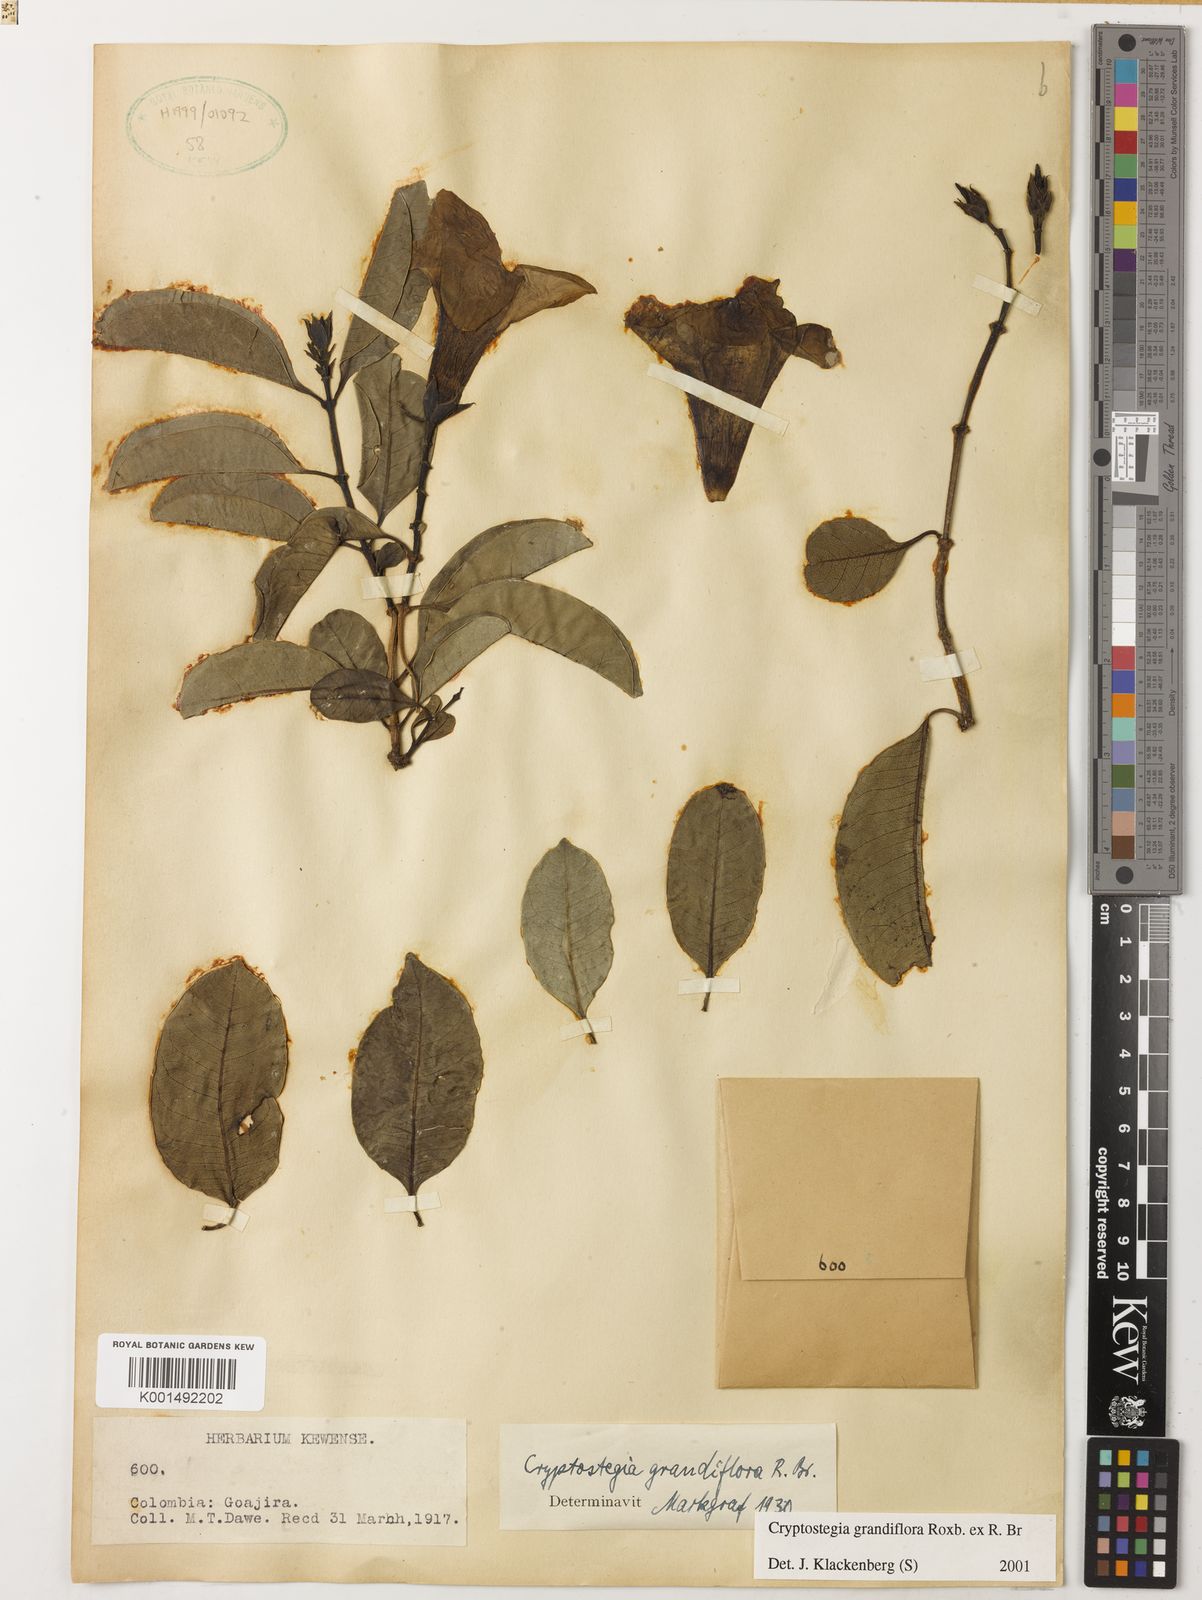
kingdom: Plantae
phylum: Tracheophyta
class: Magnoliopsida
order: Gentianales
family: Apocynaceae
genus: Cryptostegia
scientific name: Cryptostegia grandiflora
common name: Palay rubbervine
